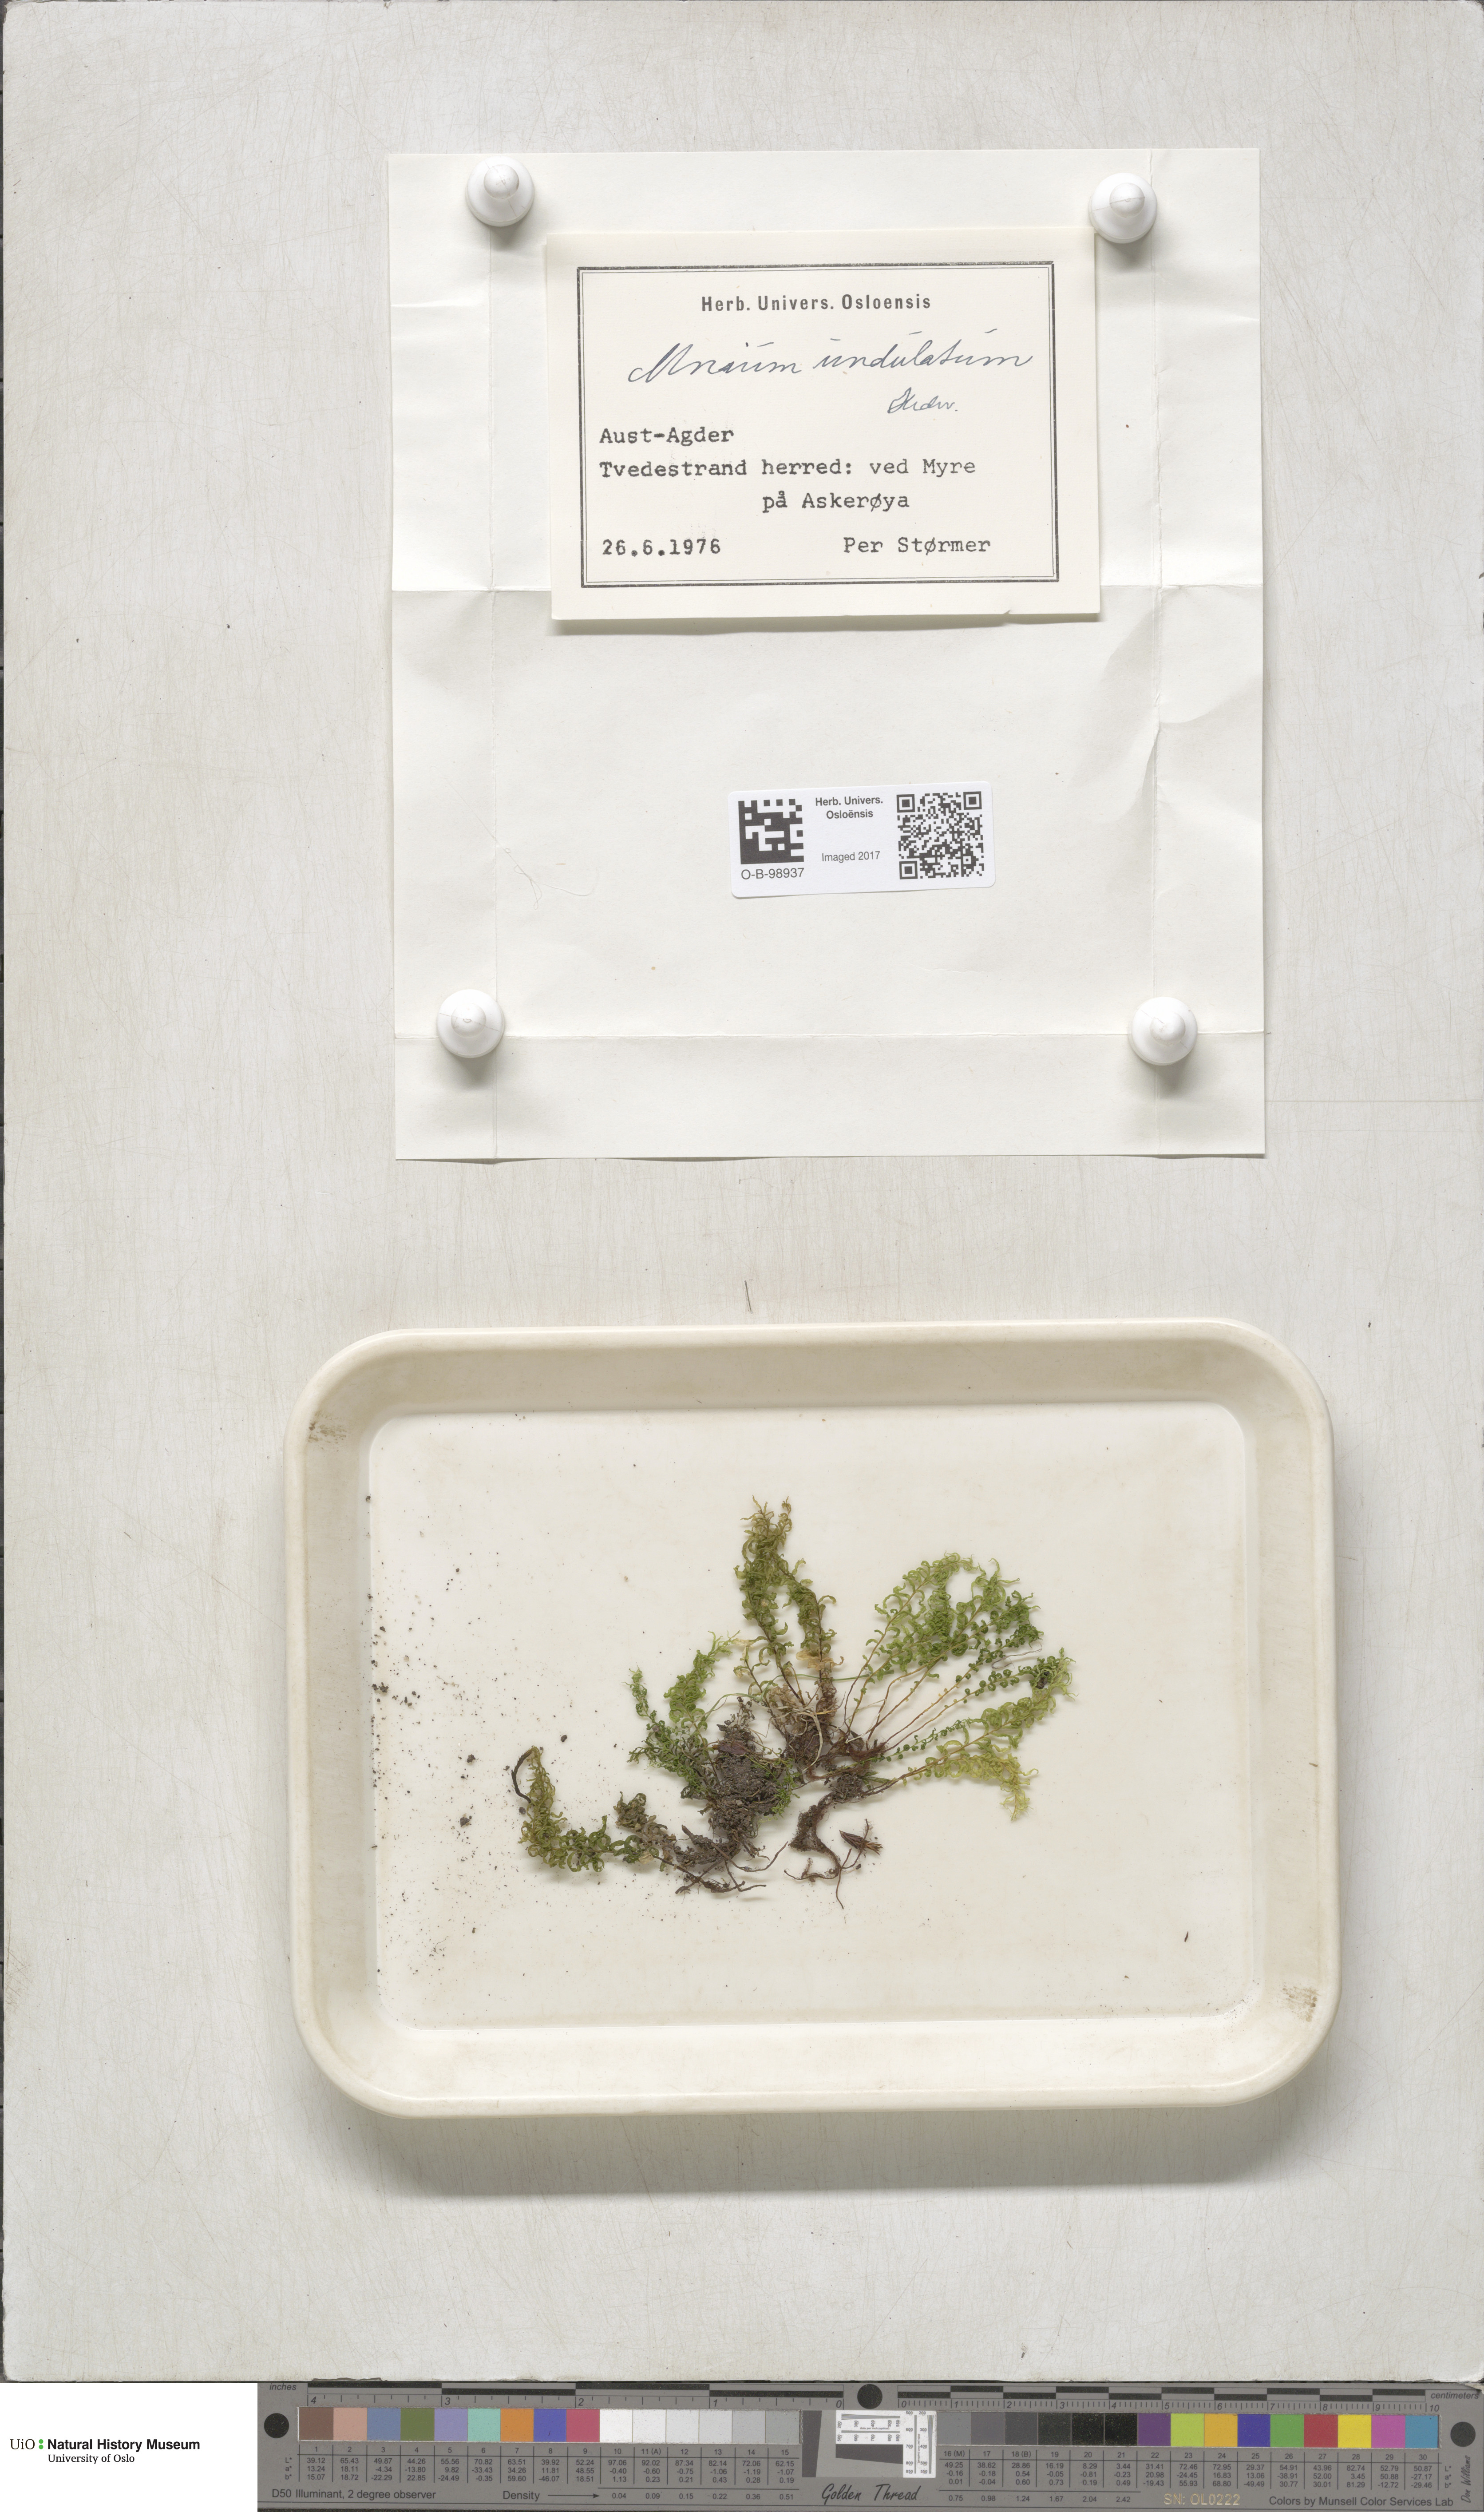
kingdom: Plantae
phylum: Bryophyta
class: Bryopsida
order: Bryales
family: Mniaceae
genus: Plagiomnium
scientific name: Plagiomnium undulatum
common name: Hart's-tongue thyme-moss
